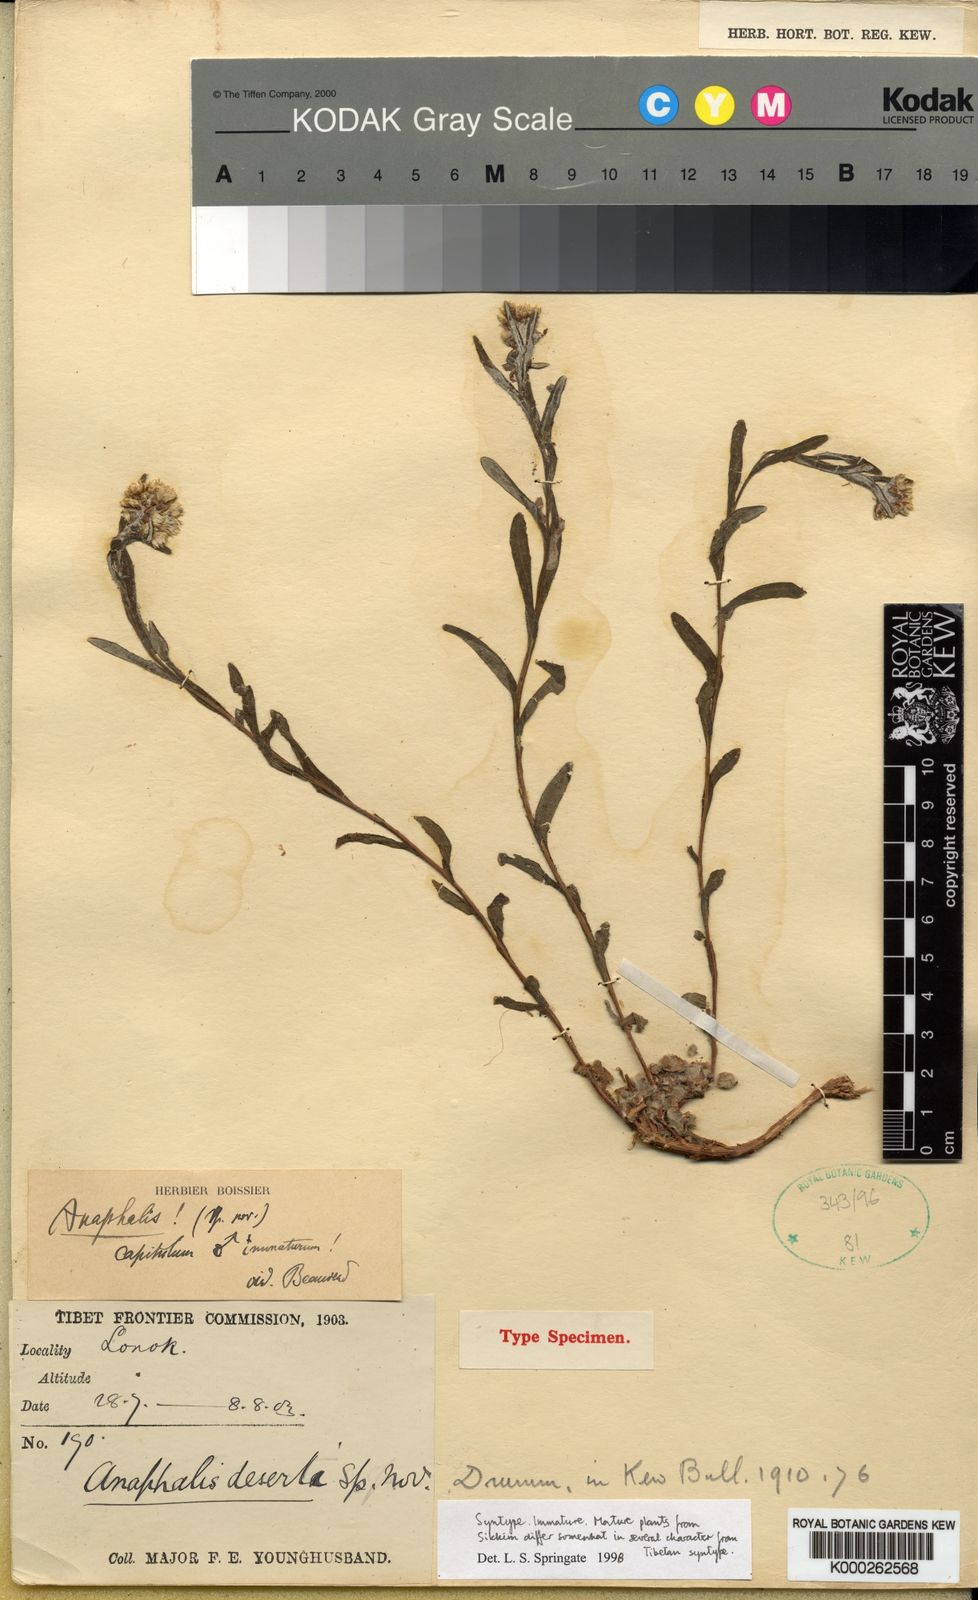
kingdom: Plantae
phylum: Tracheophyta
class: Magnoliopsida
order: Asterales
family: Asteraceae
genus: Anaphalis
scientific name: Anaphalis deserti
